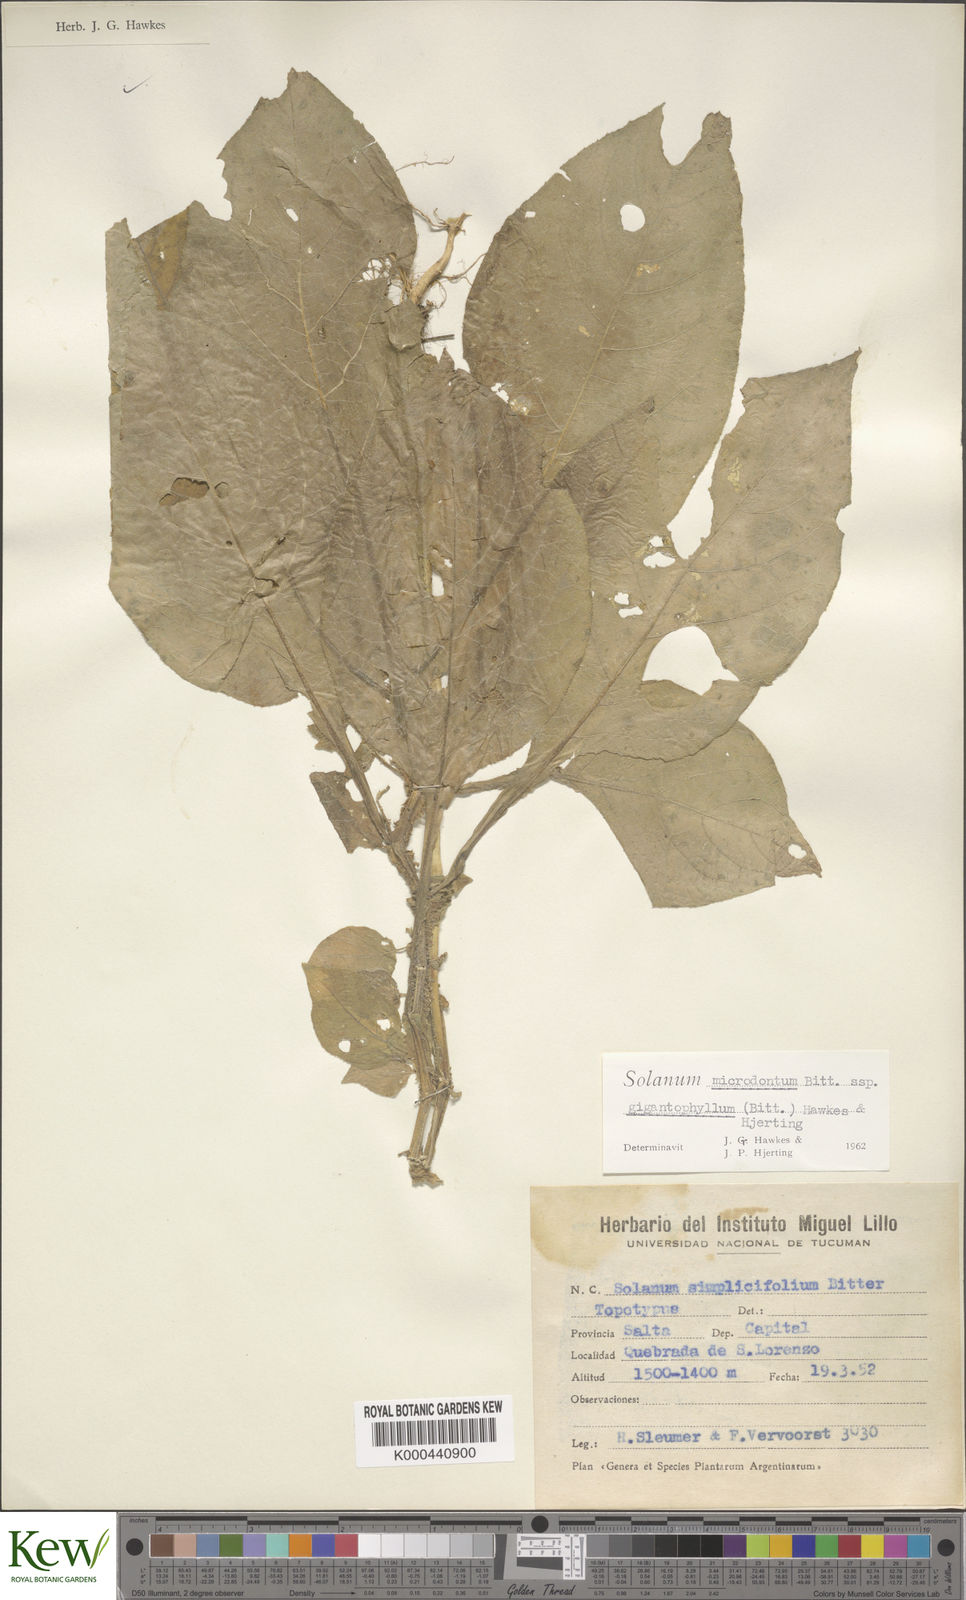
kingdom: Plantae
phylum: Tracheophyta
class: Magnoliopsida
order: Solanales
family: Solanaceae
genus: Solanum
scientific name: Solanum microdontum
